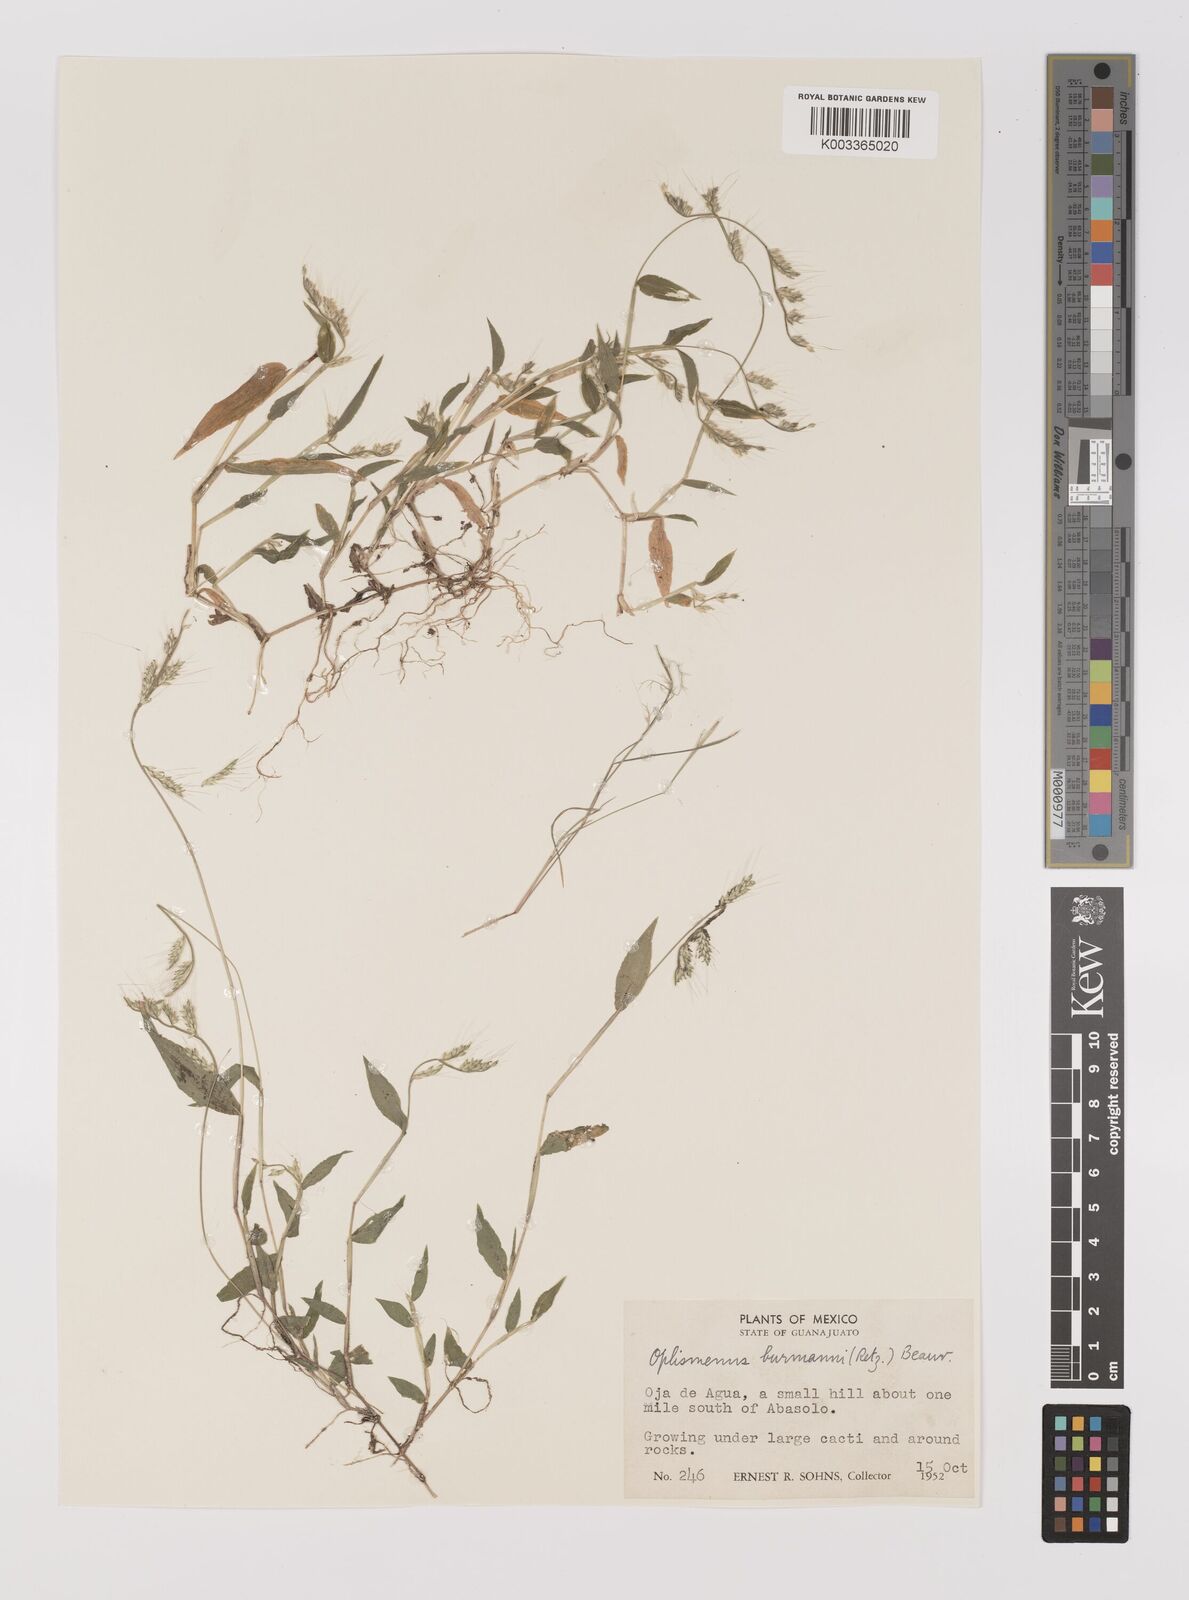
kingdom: Plantae
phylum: Tracheophyta
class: Liliopsida
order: Poales
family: Poaceae
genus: Oplismenus
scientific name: Oplismenus burmanni
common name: Burmann's basketgrass
